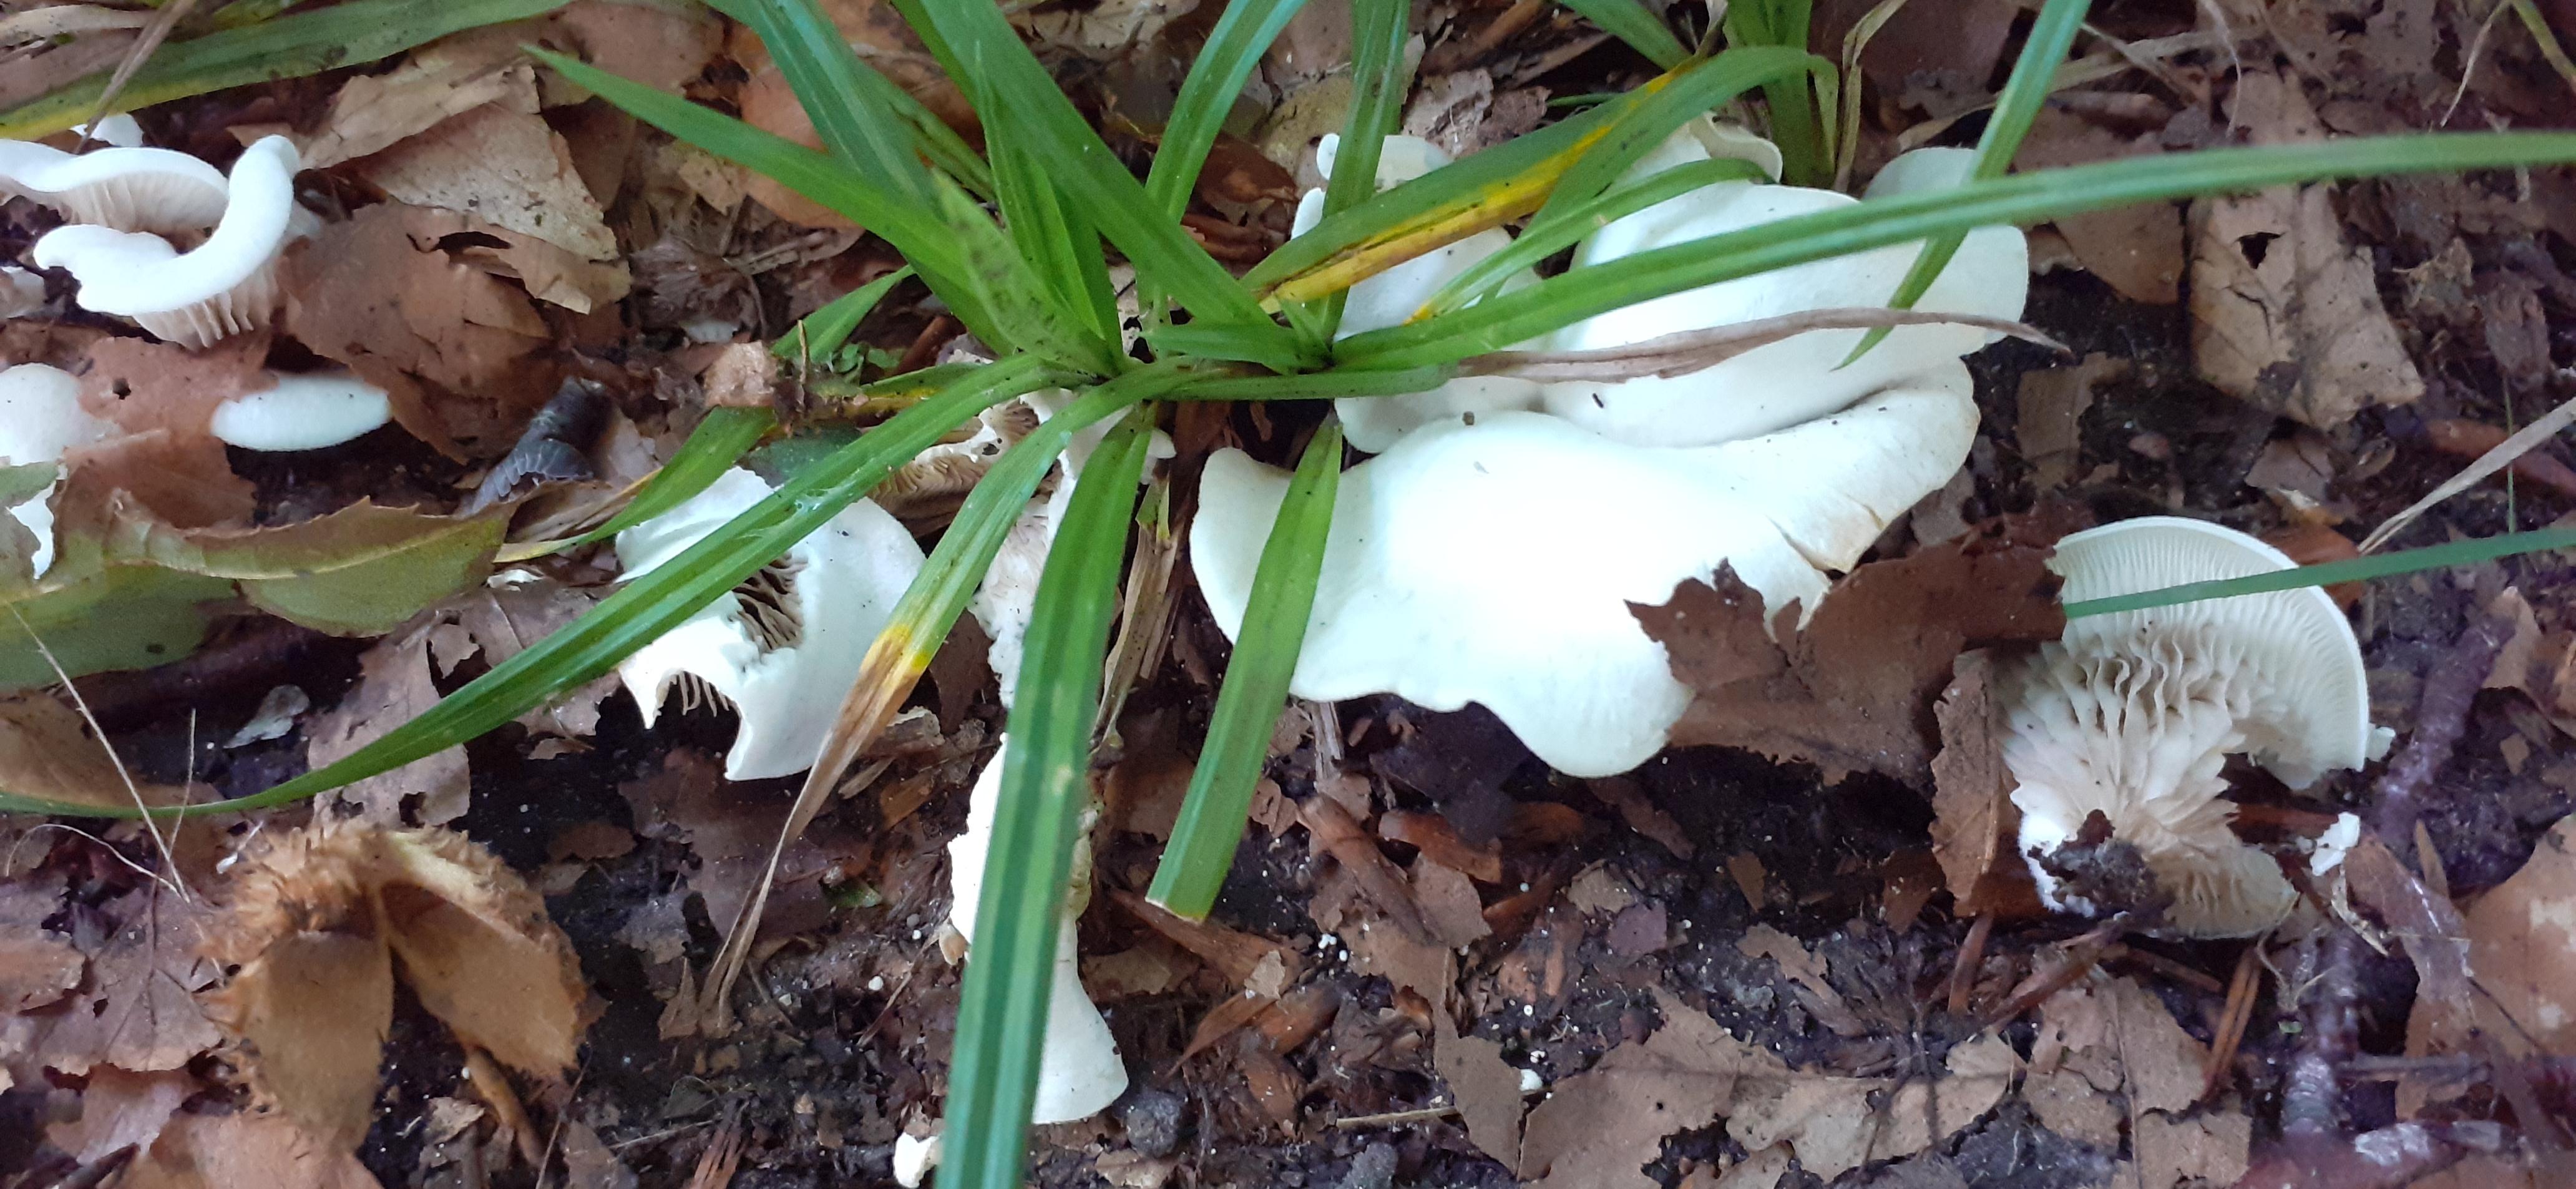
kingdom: Fungi
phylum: Basidiomycota
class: Agaricomycetes
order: Agaricales
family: Crepidotaceae
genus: Crepidotus
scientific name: Crepidotus autochthonus
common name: skæv muslingesvamp
